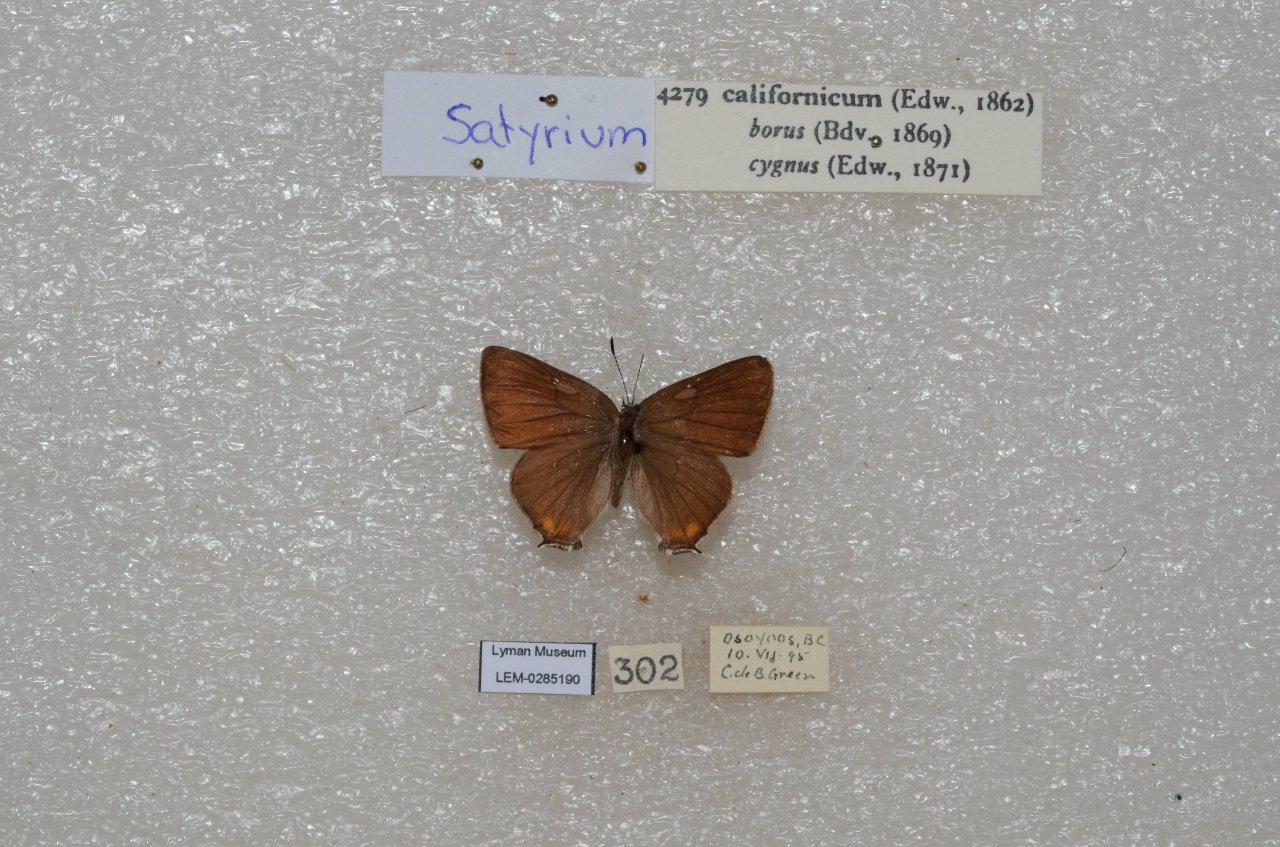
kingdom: Animalia
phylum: Arthropoda
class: Insecta
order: Lepidoptera
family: Lycaenidae
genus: Strymon
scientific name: Strymon acadica
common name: California Hairstreak
